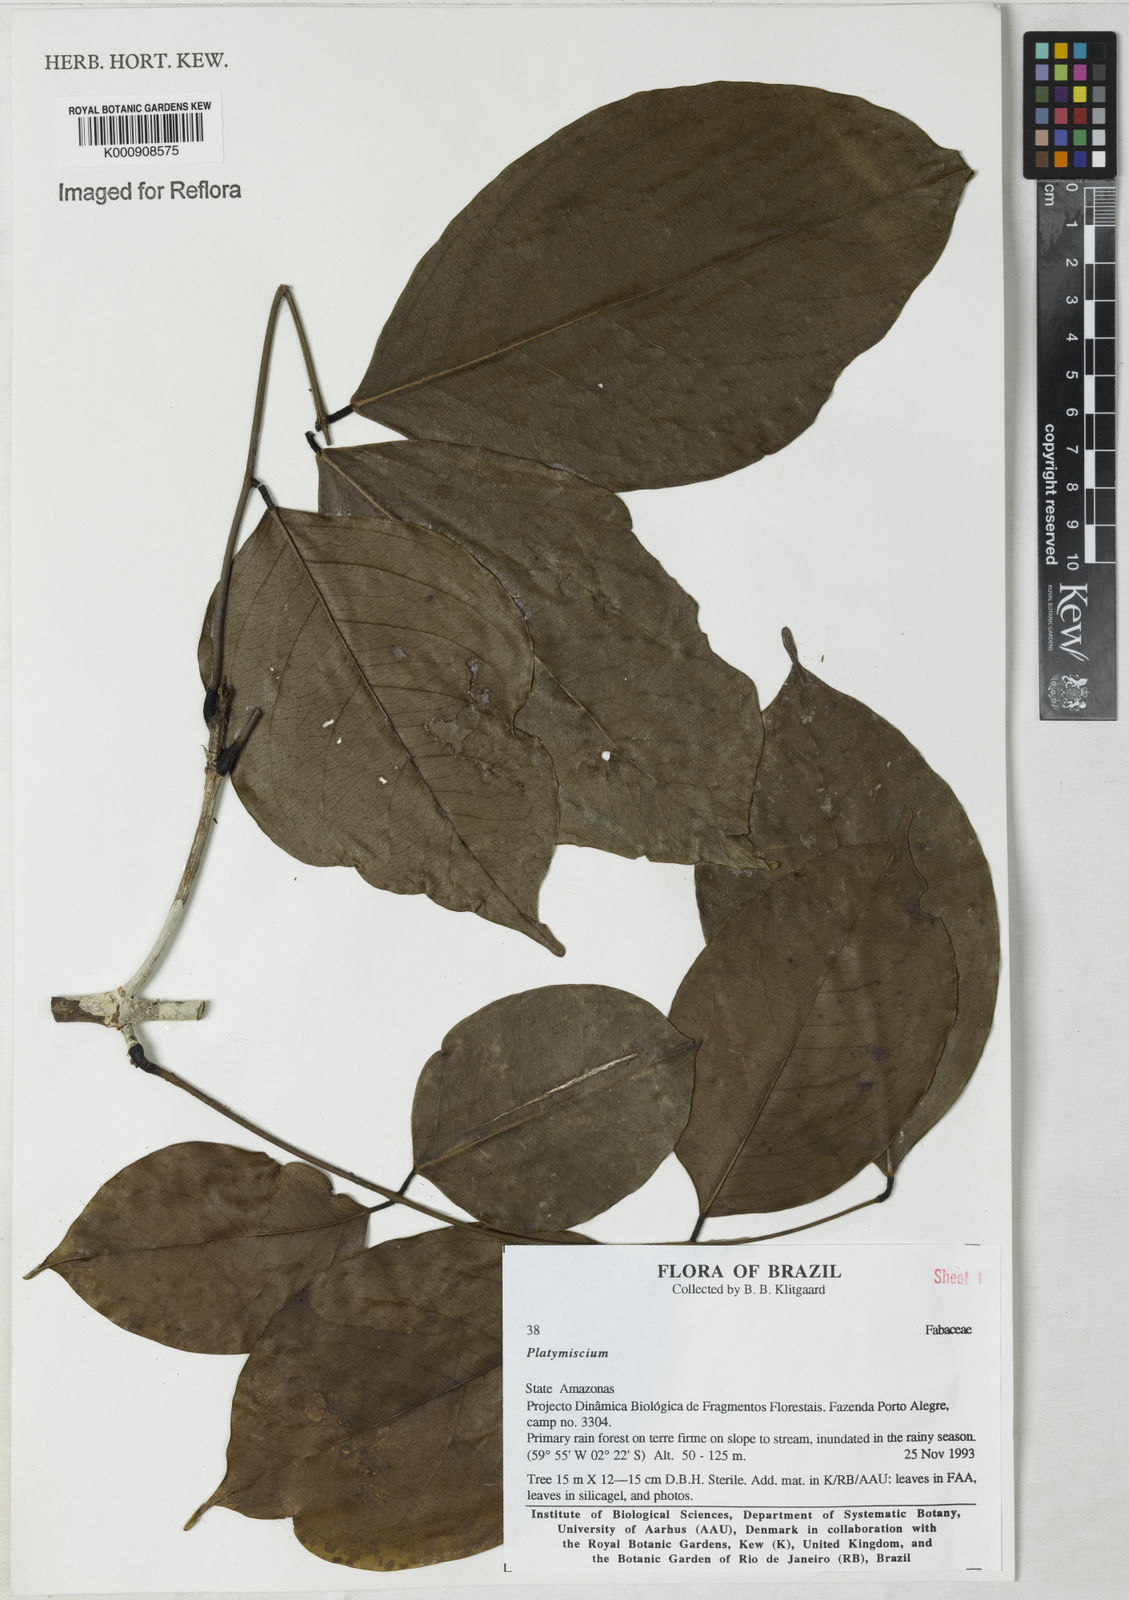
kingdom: Plantae
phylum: Tracheophyta
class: Magnoliopsida
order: Fabales
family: Fabaceae
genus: Platymiscium
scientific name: Platymiscium
